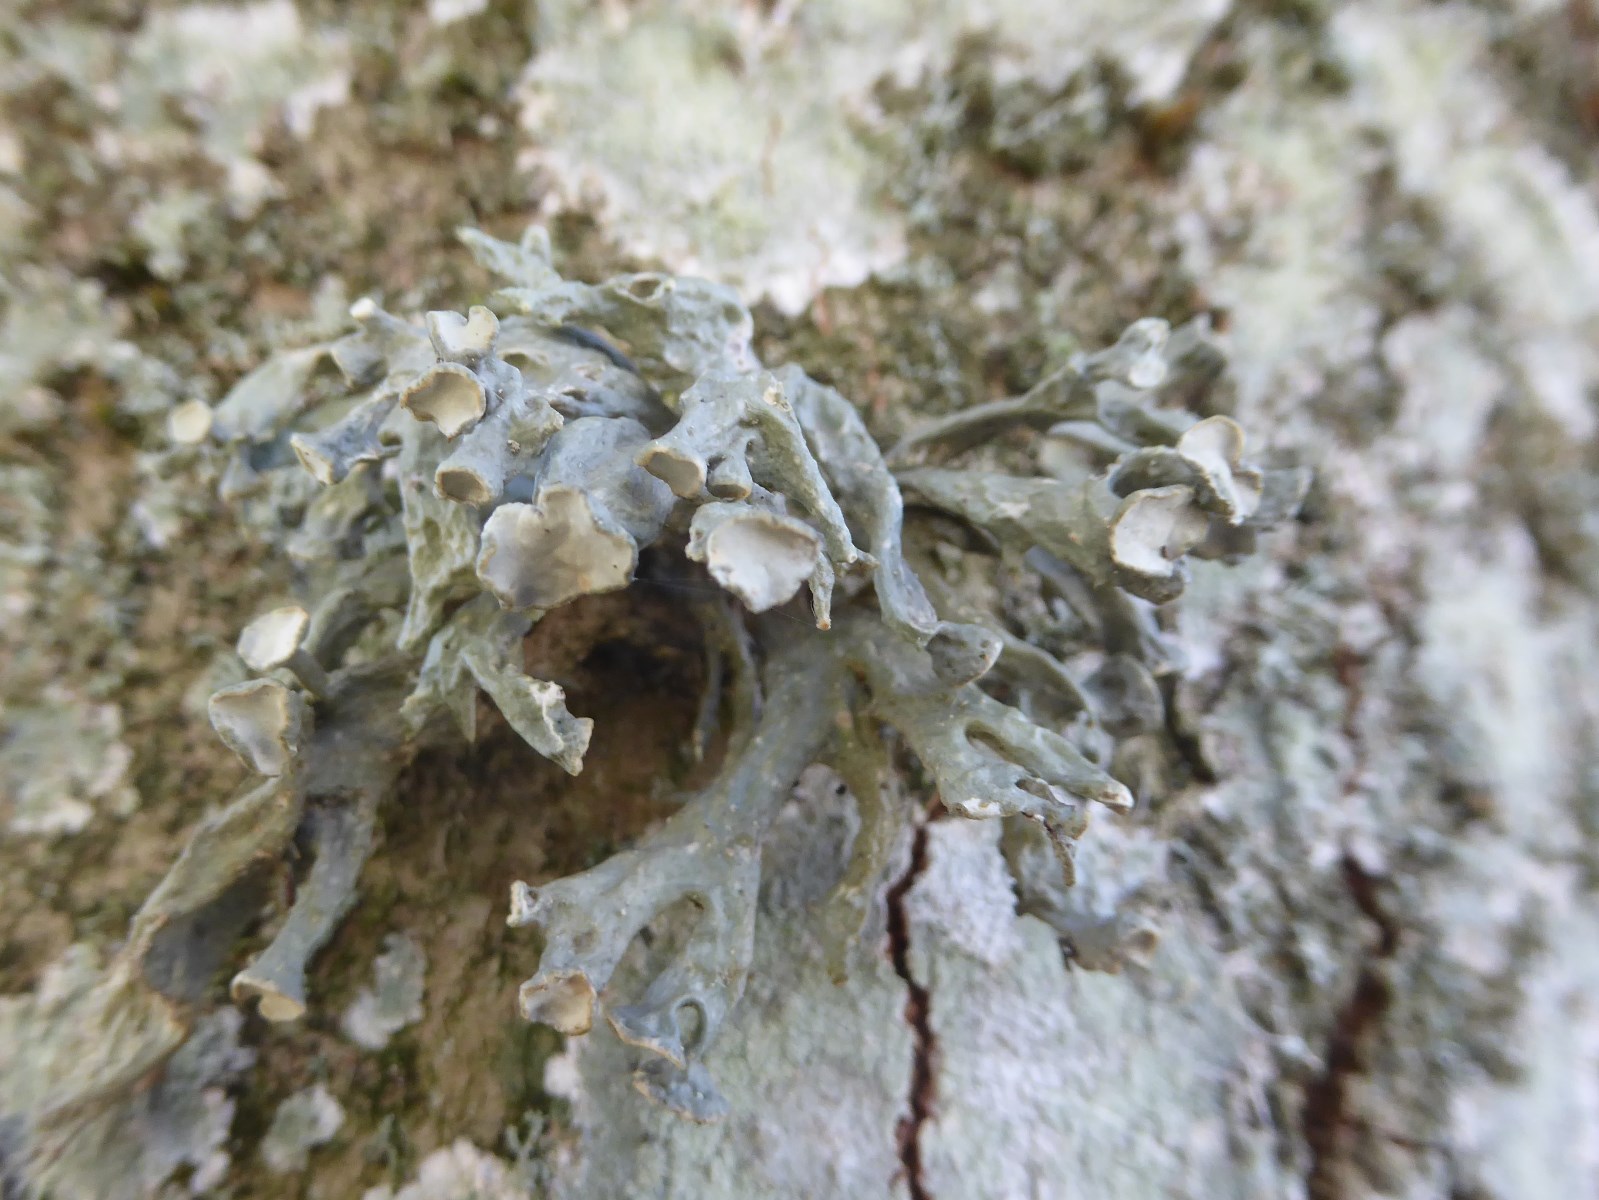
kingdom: Fungi
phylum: Ascomycota
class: Lecanoromycetes
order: Lecanorales
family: Ramalinaceae
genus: Ramalina
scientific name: Ramalina fastigiata
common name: tue-grenlav
